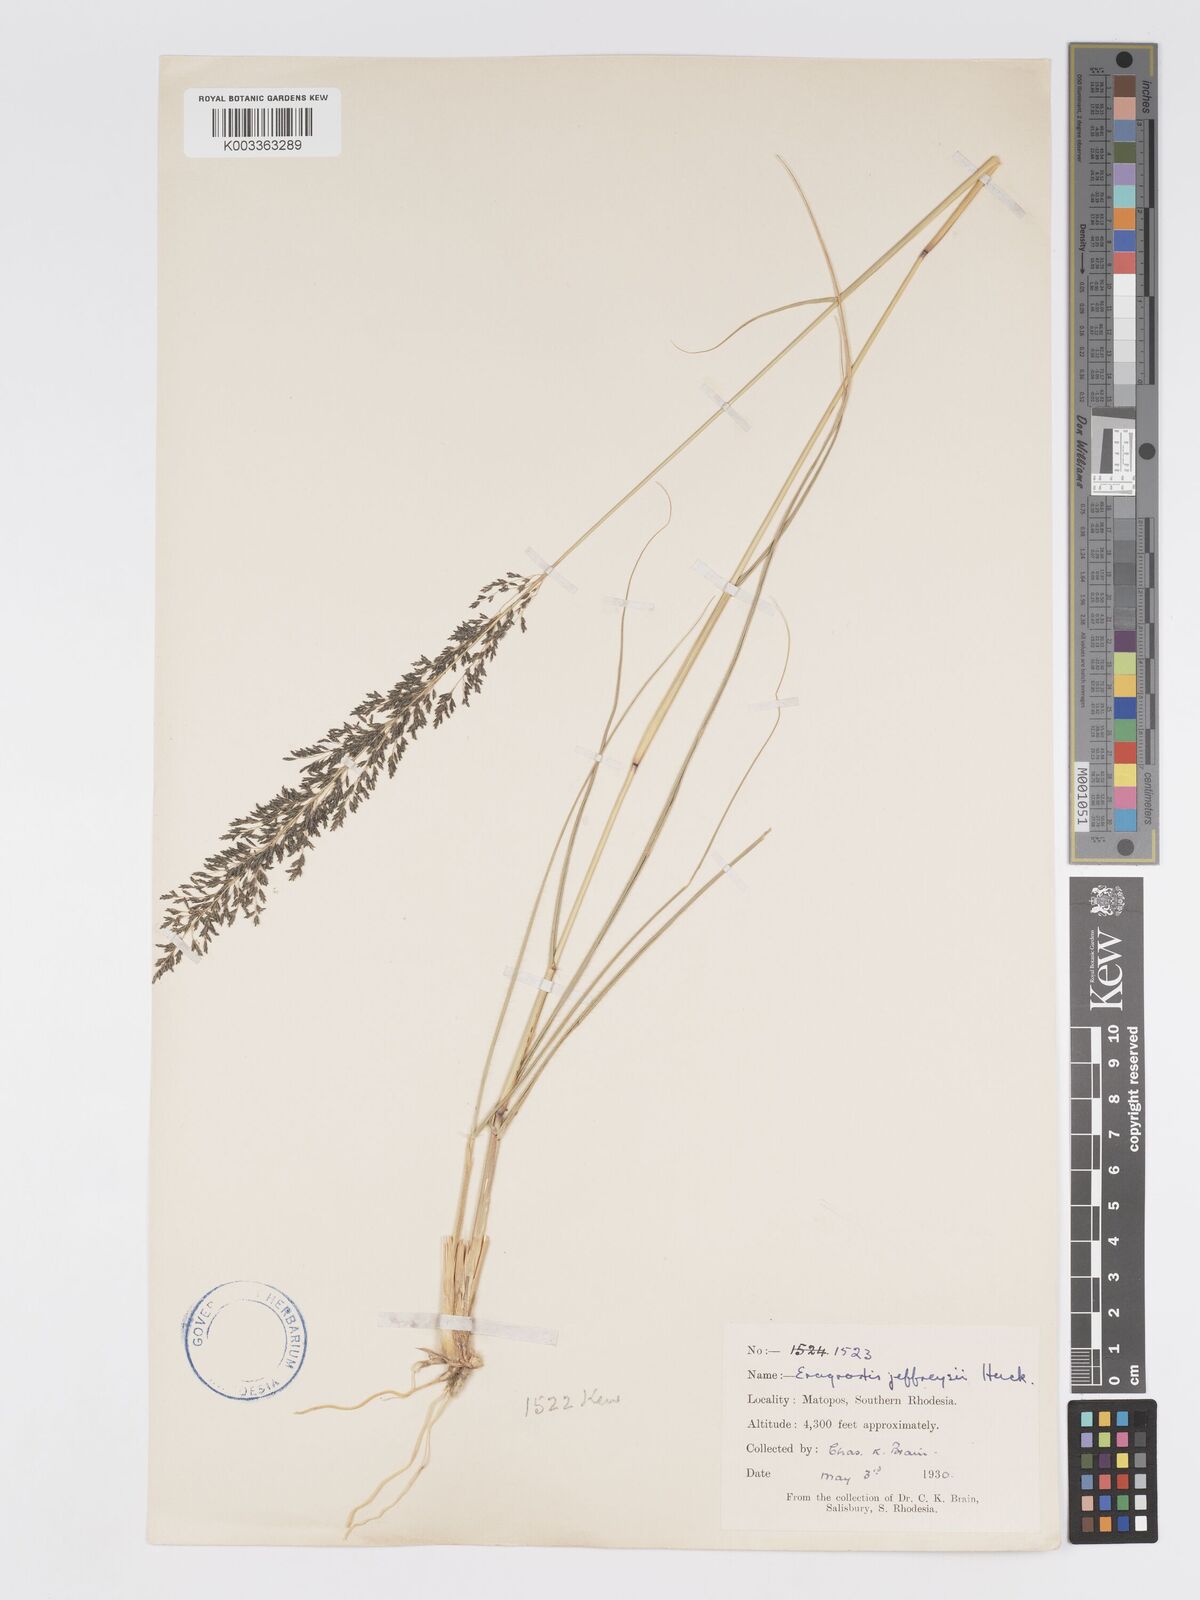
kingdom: Plantae
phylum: Tracheophyta
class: Liliopsida
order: Poales
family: Poaceae
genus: Eragrostis
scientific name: Eragrostis curvula
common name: African love-grass
